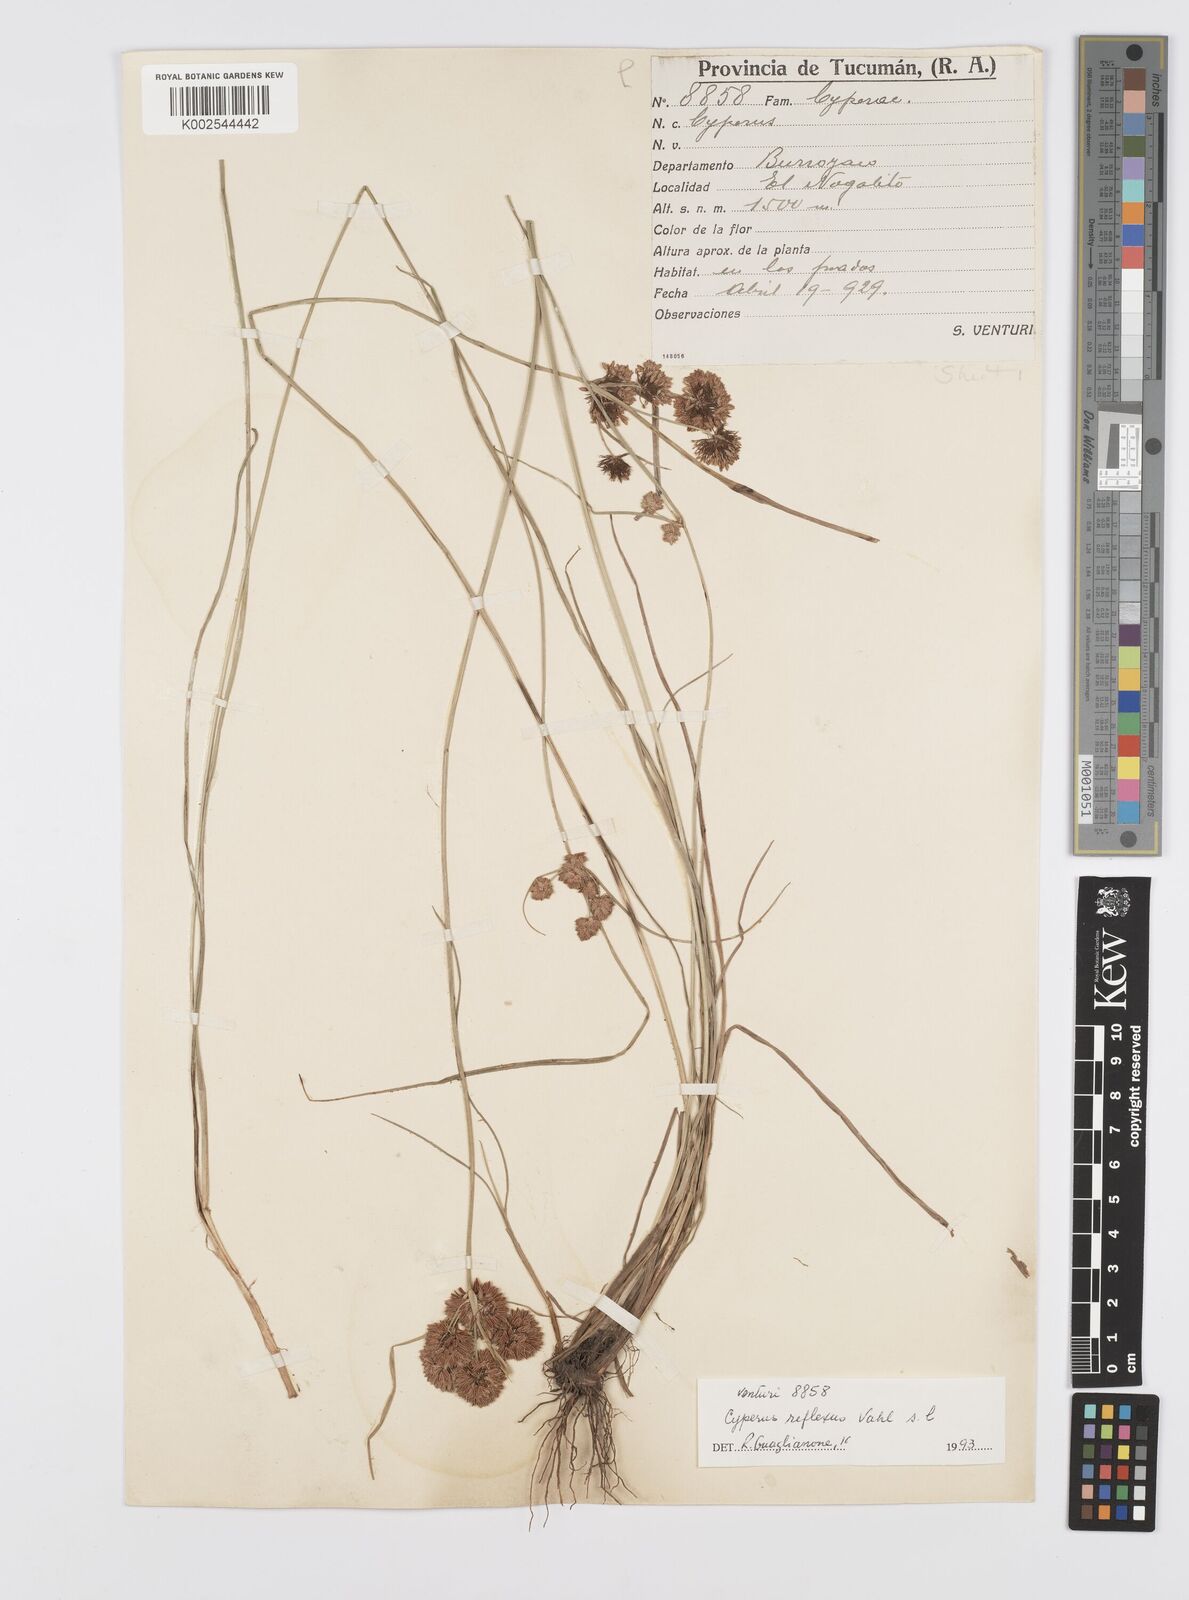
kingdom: Plantae
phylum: Tracheophyta
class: Liliopsida
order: Poales
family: Cyperaceae
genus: Cyperus
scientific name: Cyperus
